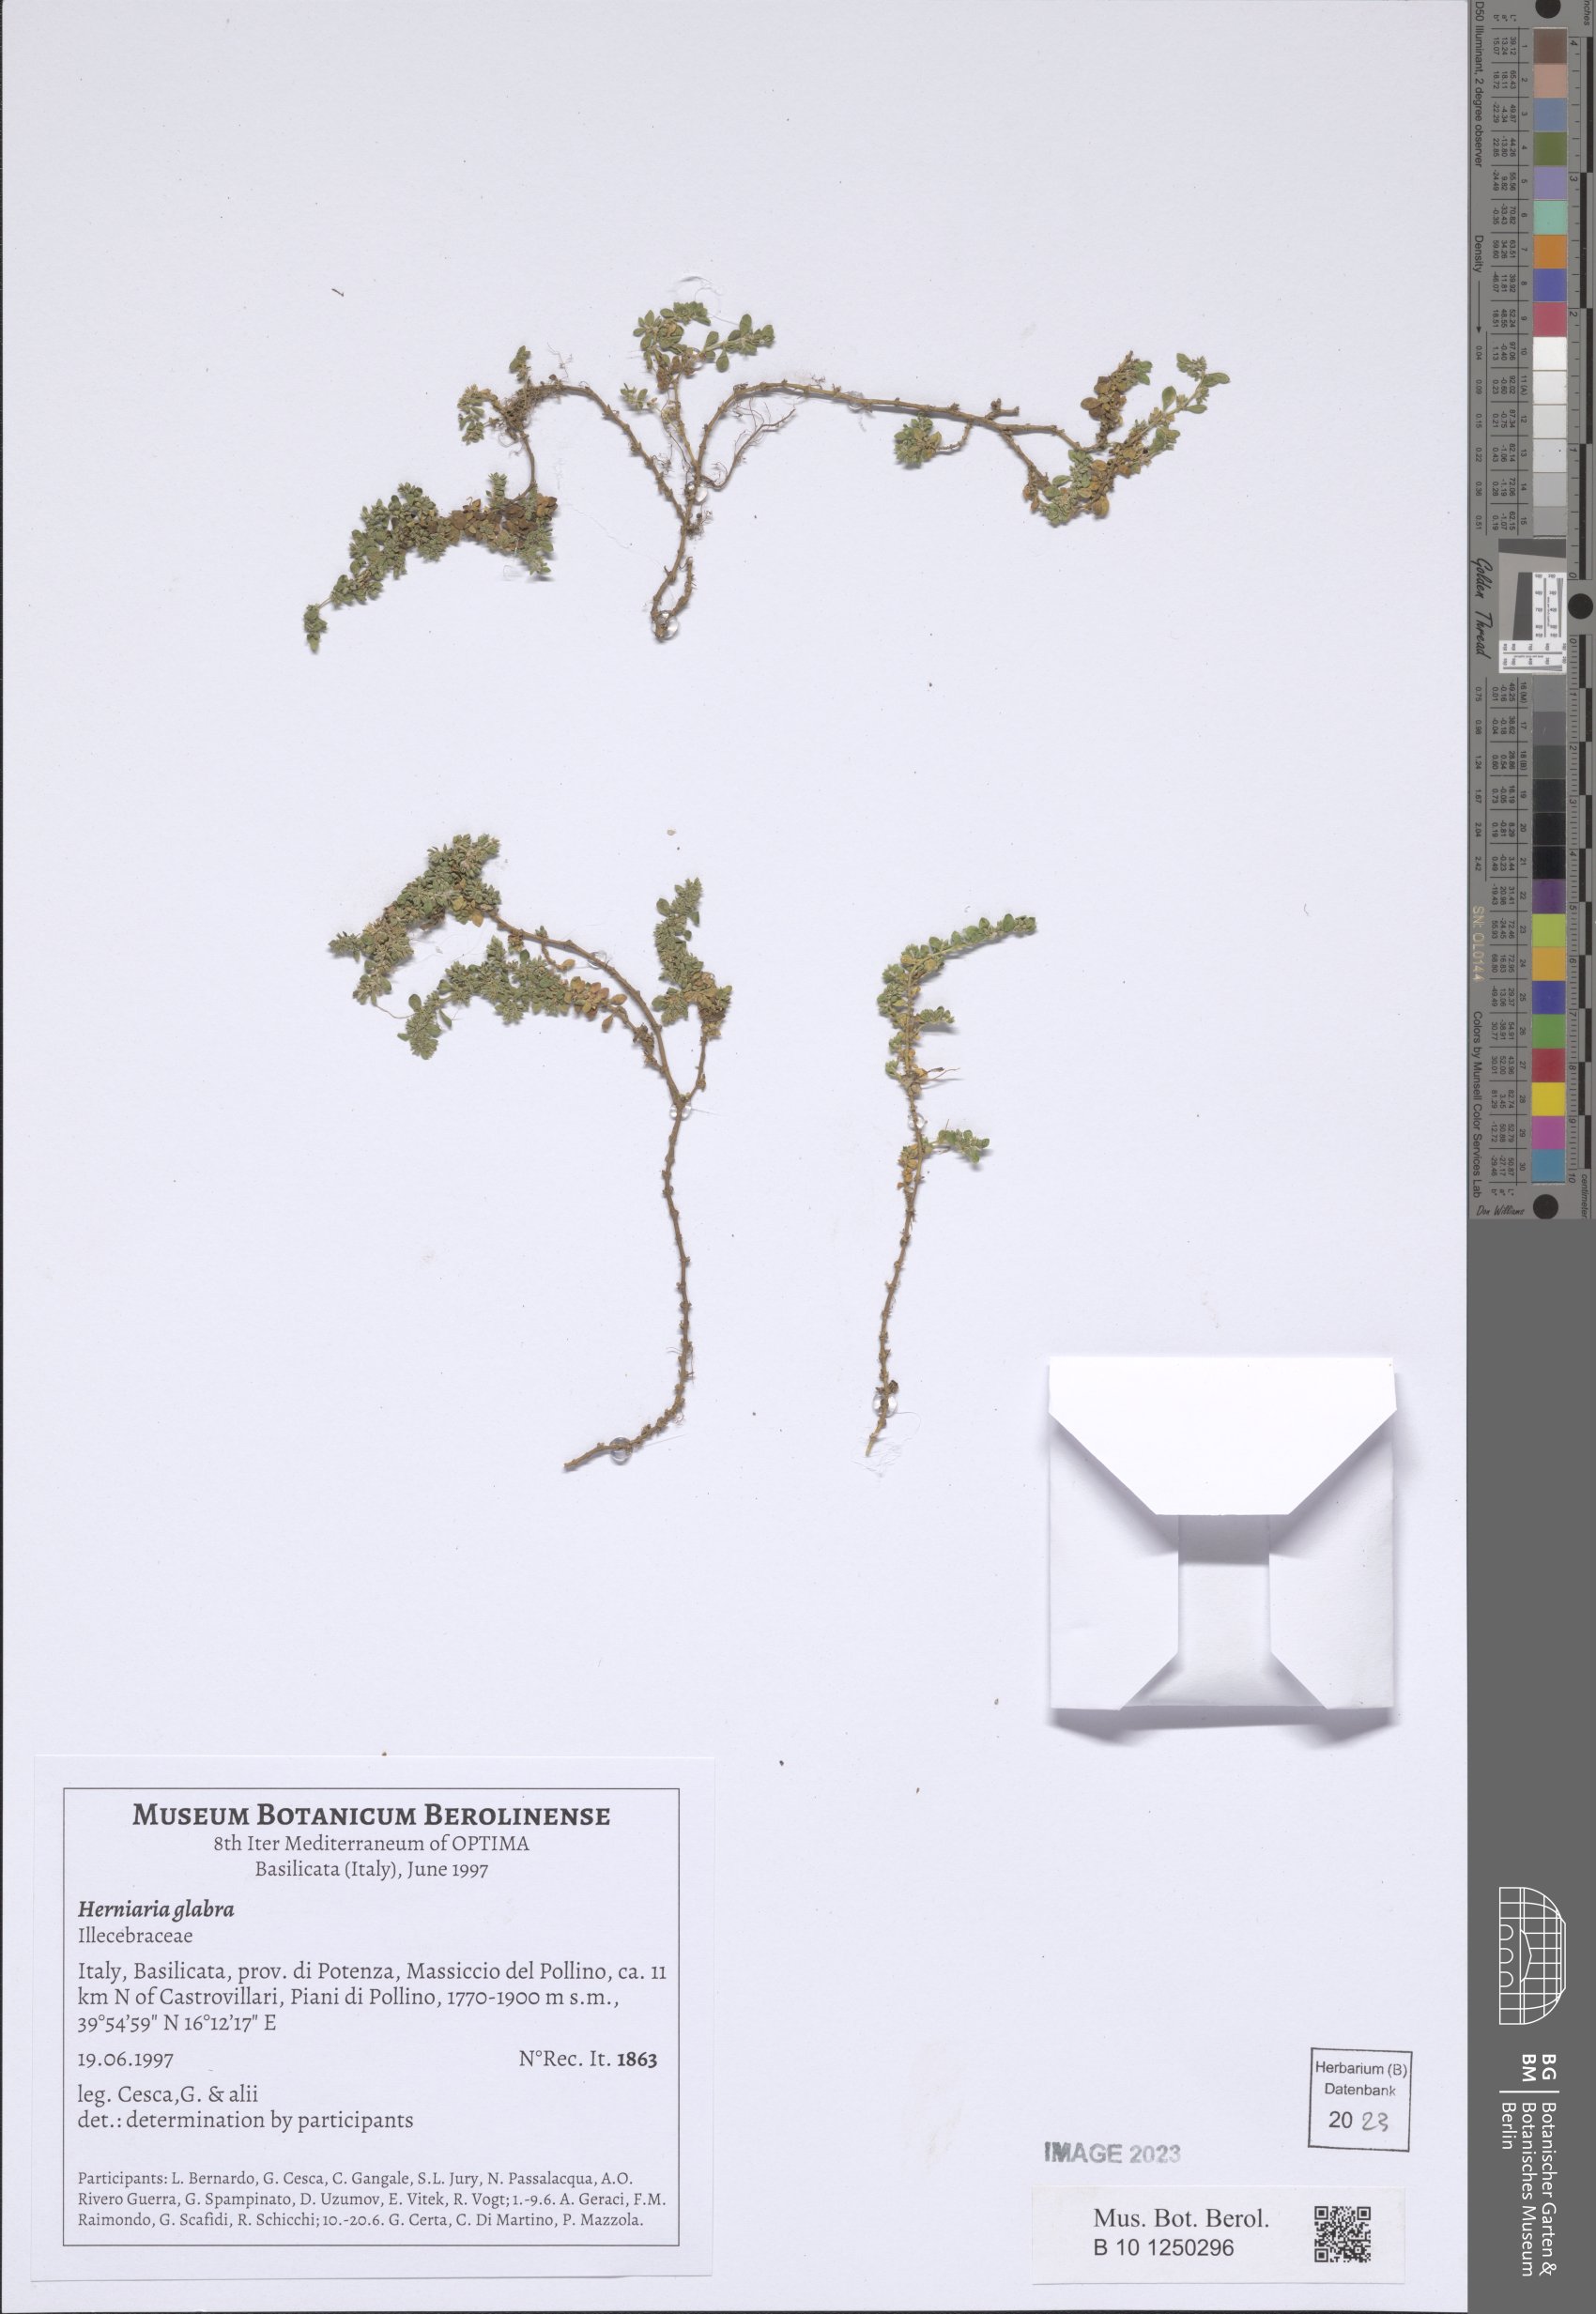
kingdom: Plantae
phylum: Tracheophyta
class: Magnoliopsida
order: Caryophyllales
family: Caryophyllaceae
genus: Herniaria
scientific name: Herniaria glabra
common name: Smooth rupturewort
